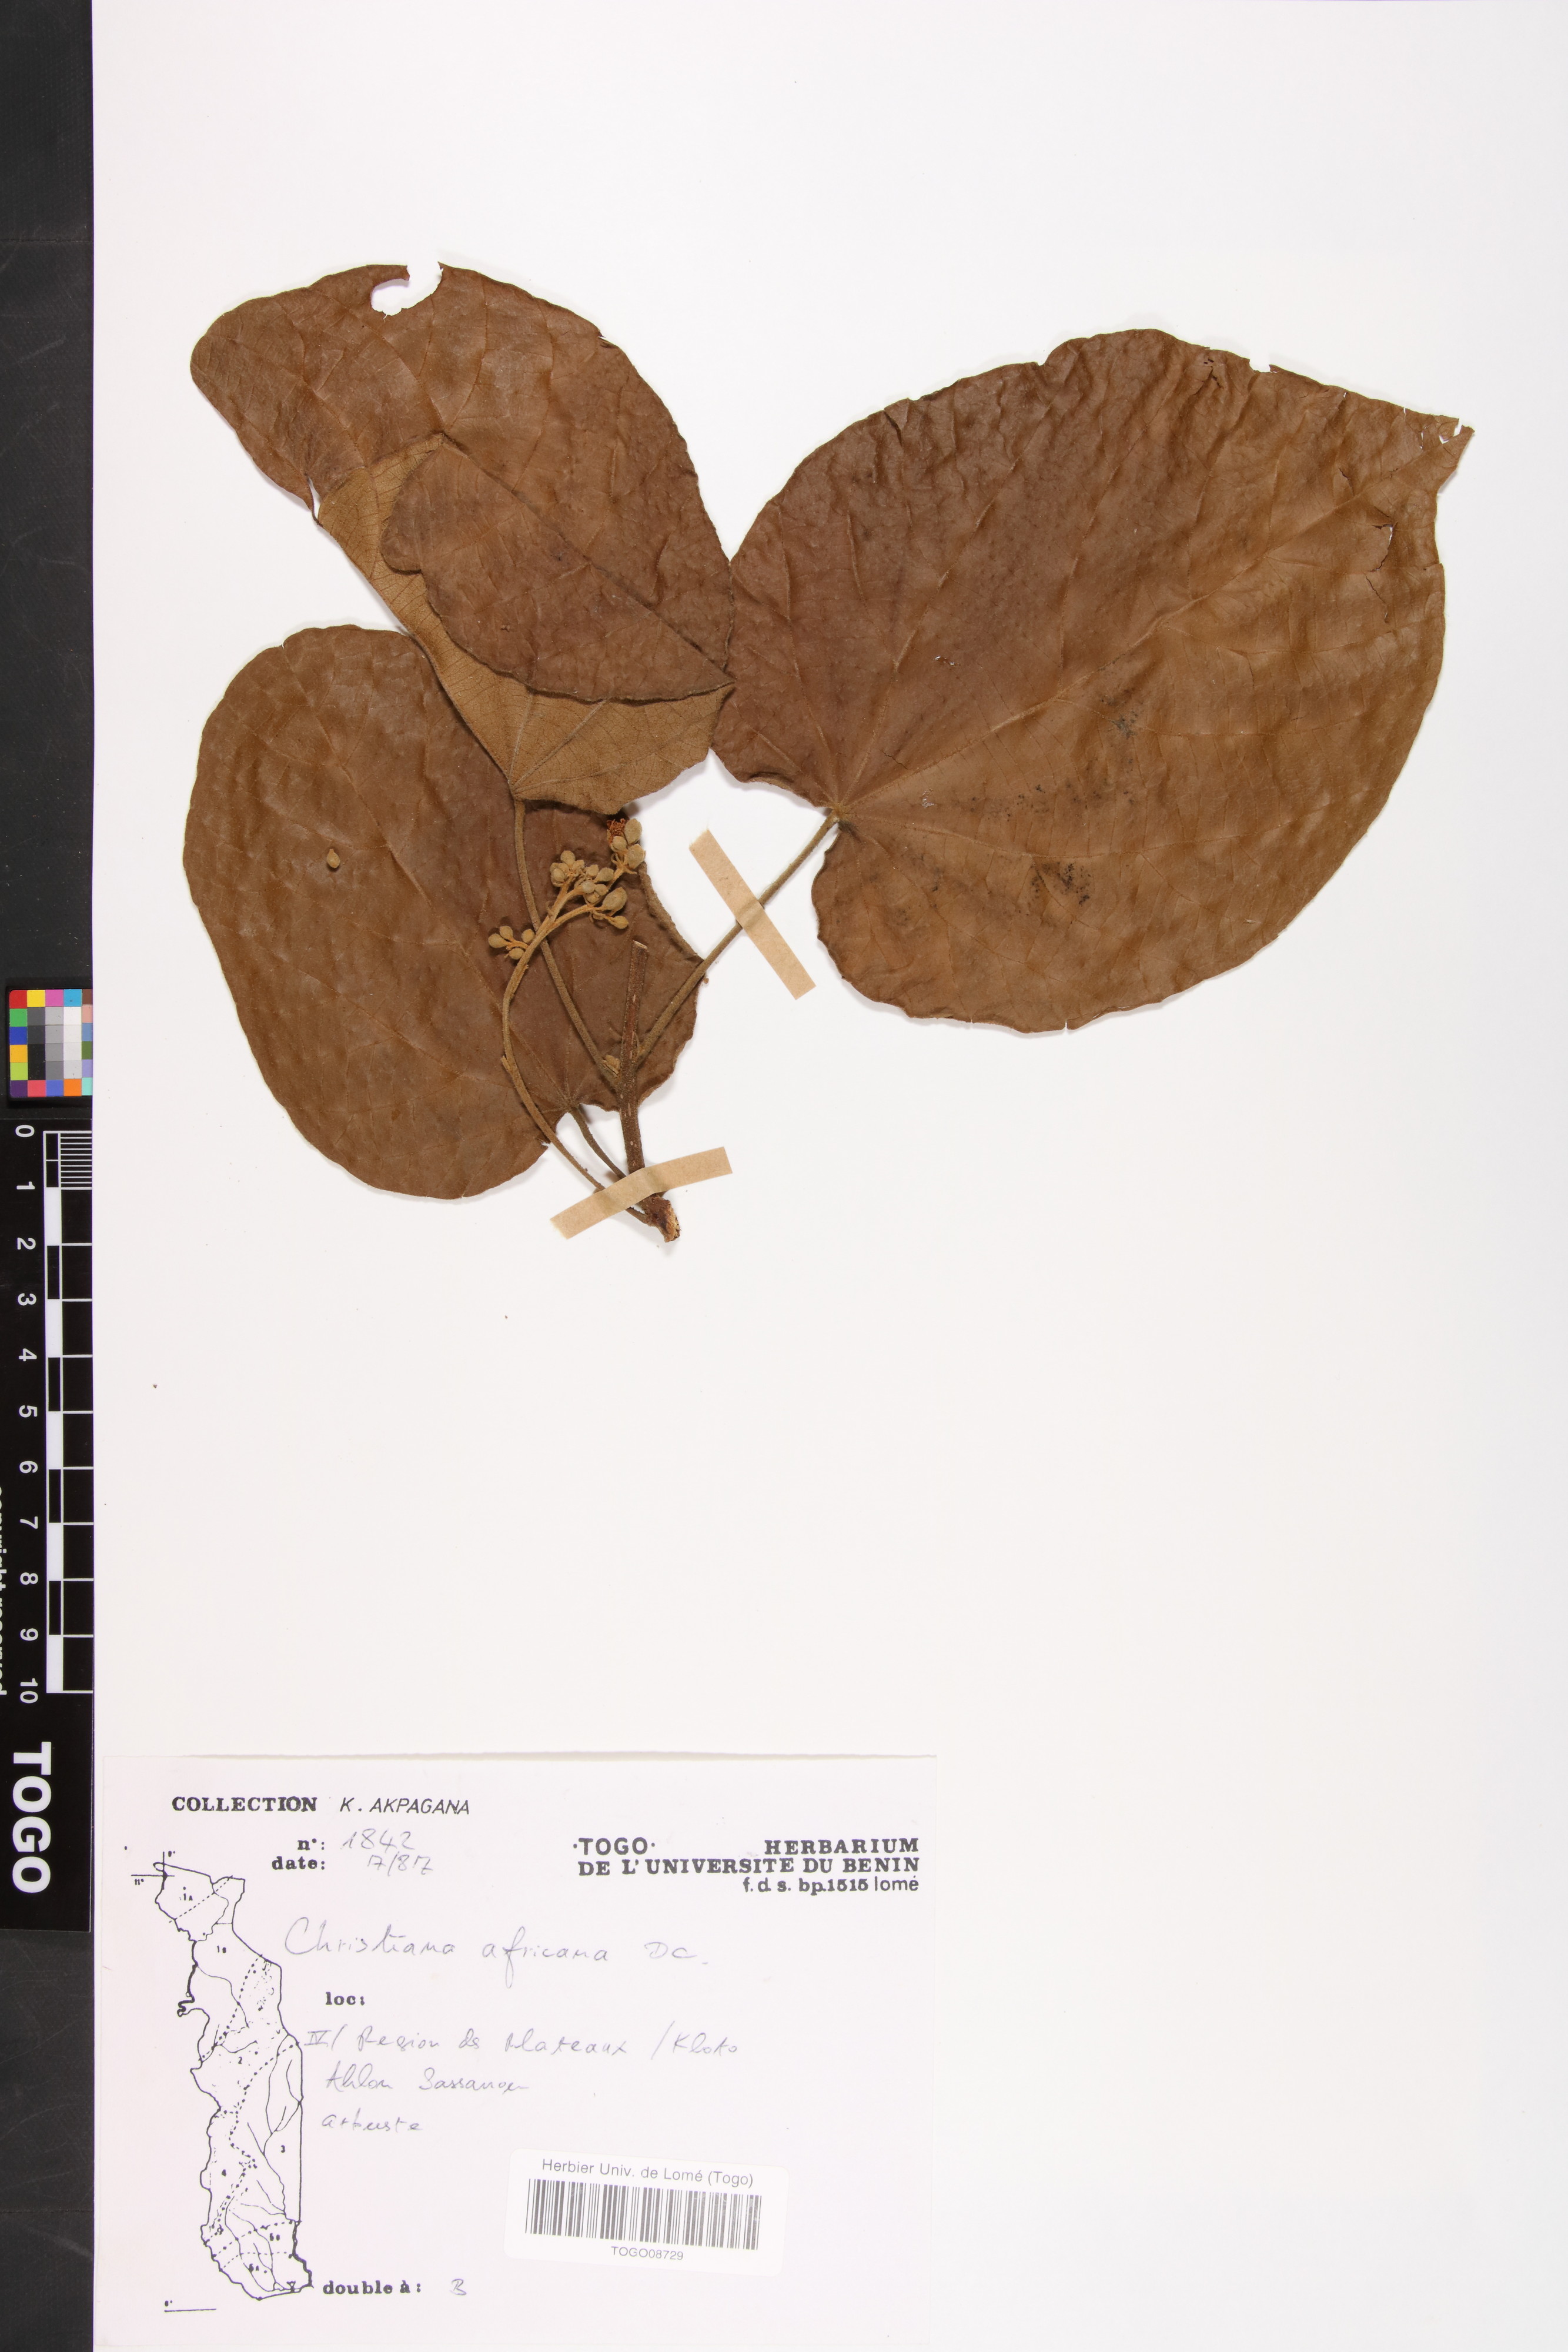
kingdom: Plantae
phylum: Tracheophyta
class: Magnoliopsida
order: Malvales
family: Malvaceae
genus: Christiana
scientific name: Christiana africana
